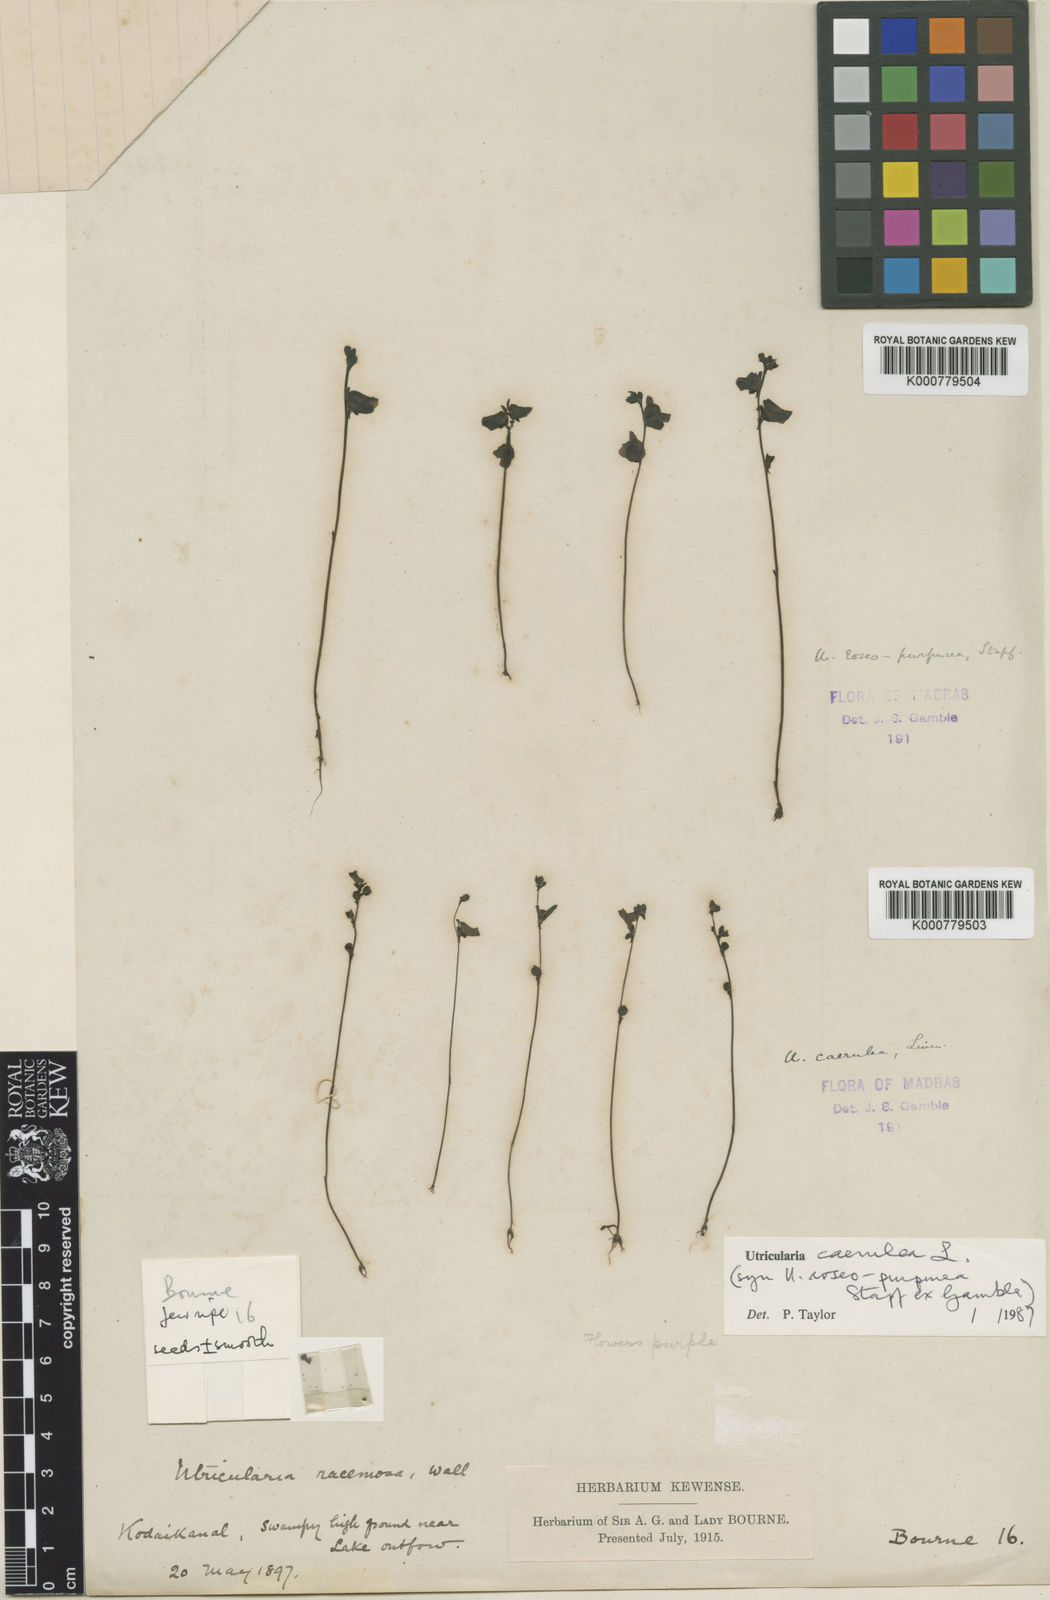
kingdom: Plantae
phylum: Tracheophyta
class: Magnoliopsida
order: Lamiales
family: Lentibulariaceae
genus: Utricularia
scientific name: Utricularia caerulea
